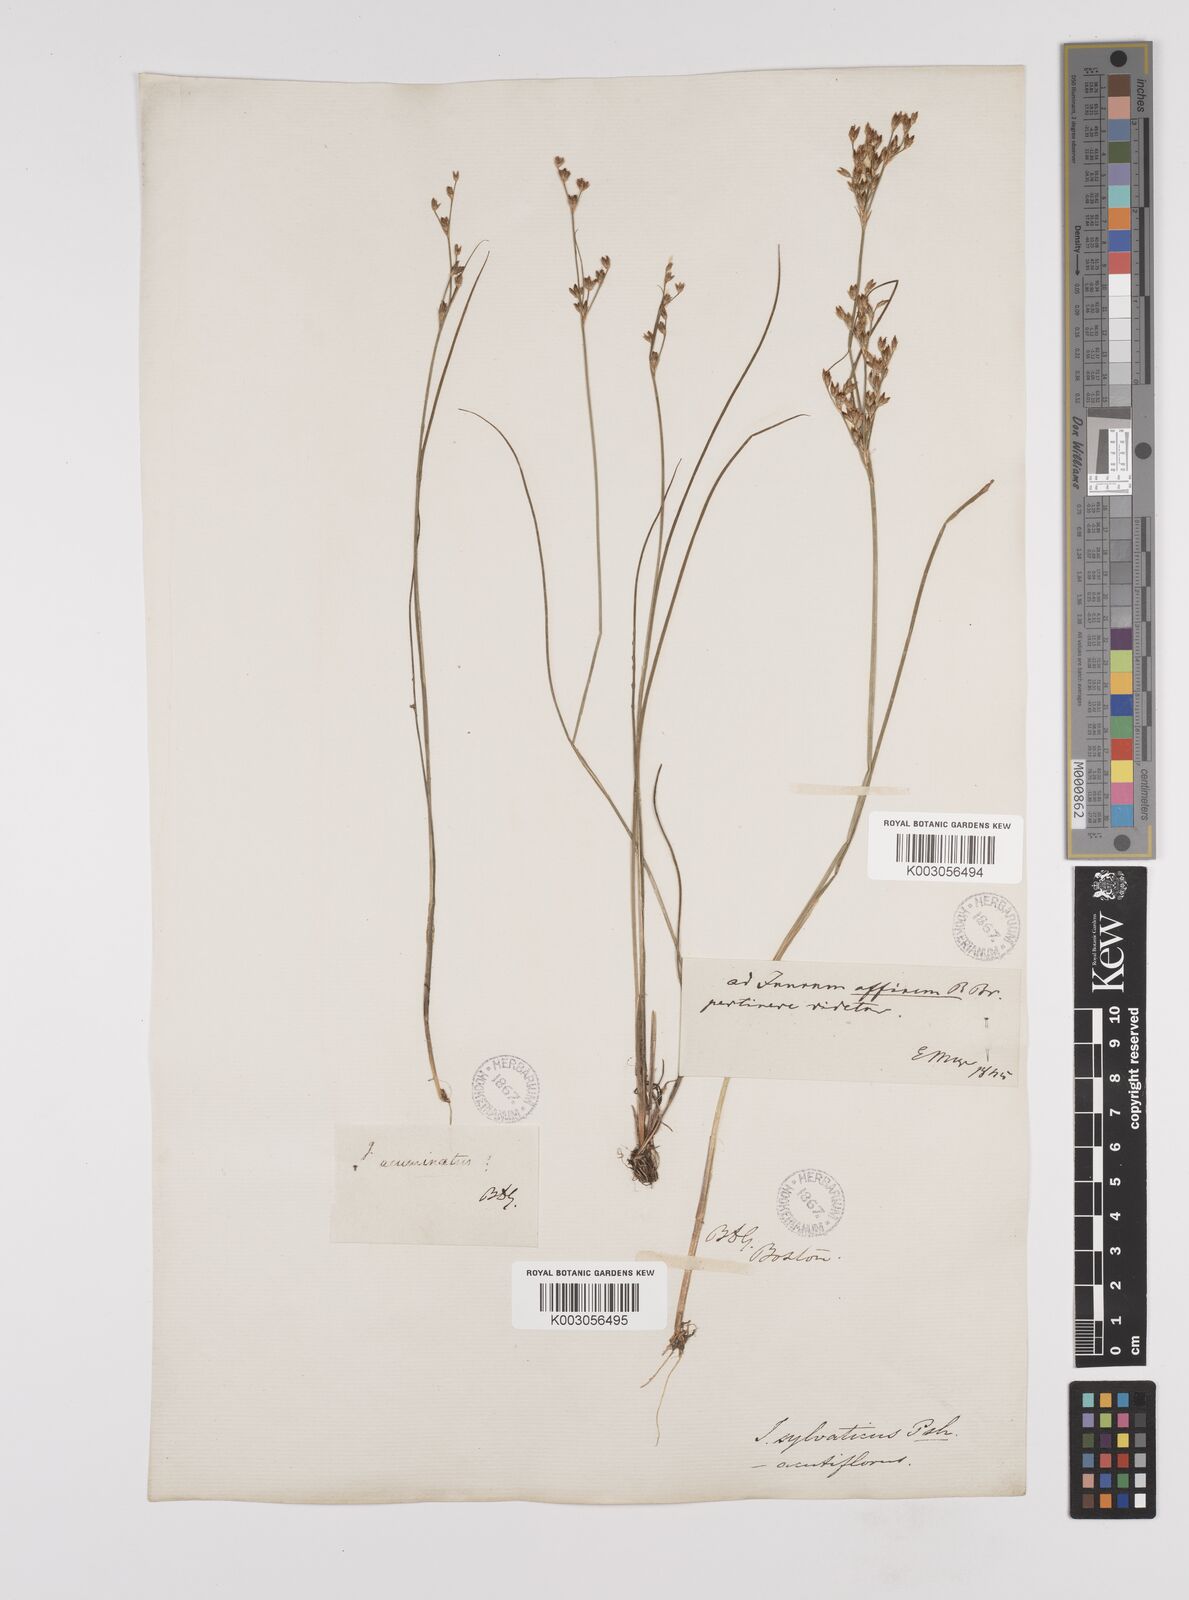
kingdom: Plantae
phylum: Tracheophyta
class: Liliopsida
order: Poales
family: Juncaceae
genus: Juncus
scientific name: Juncus dichotomus
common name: Forked rush
